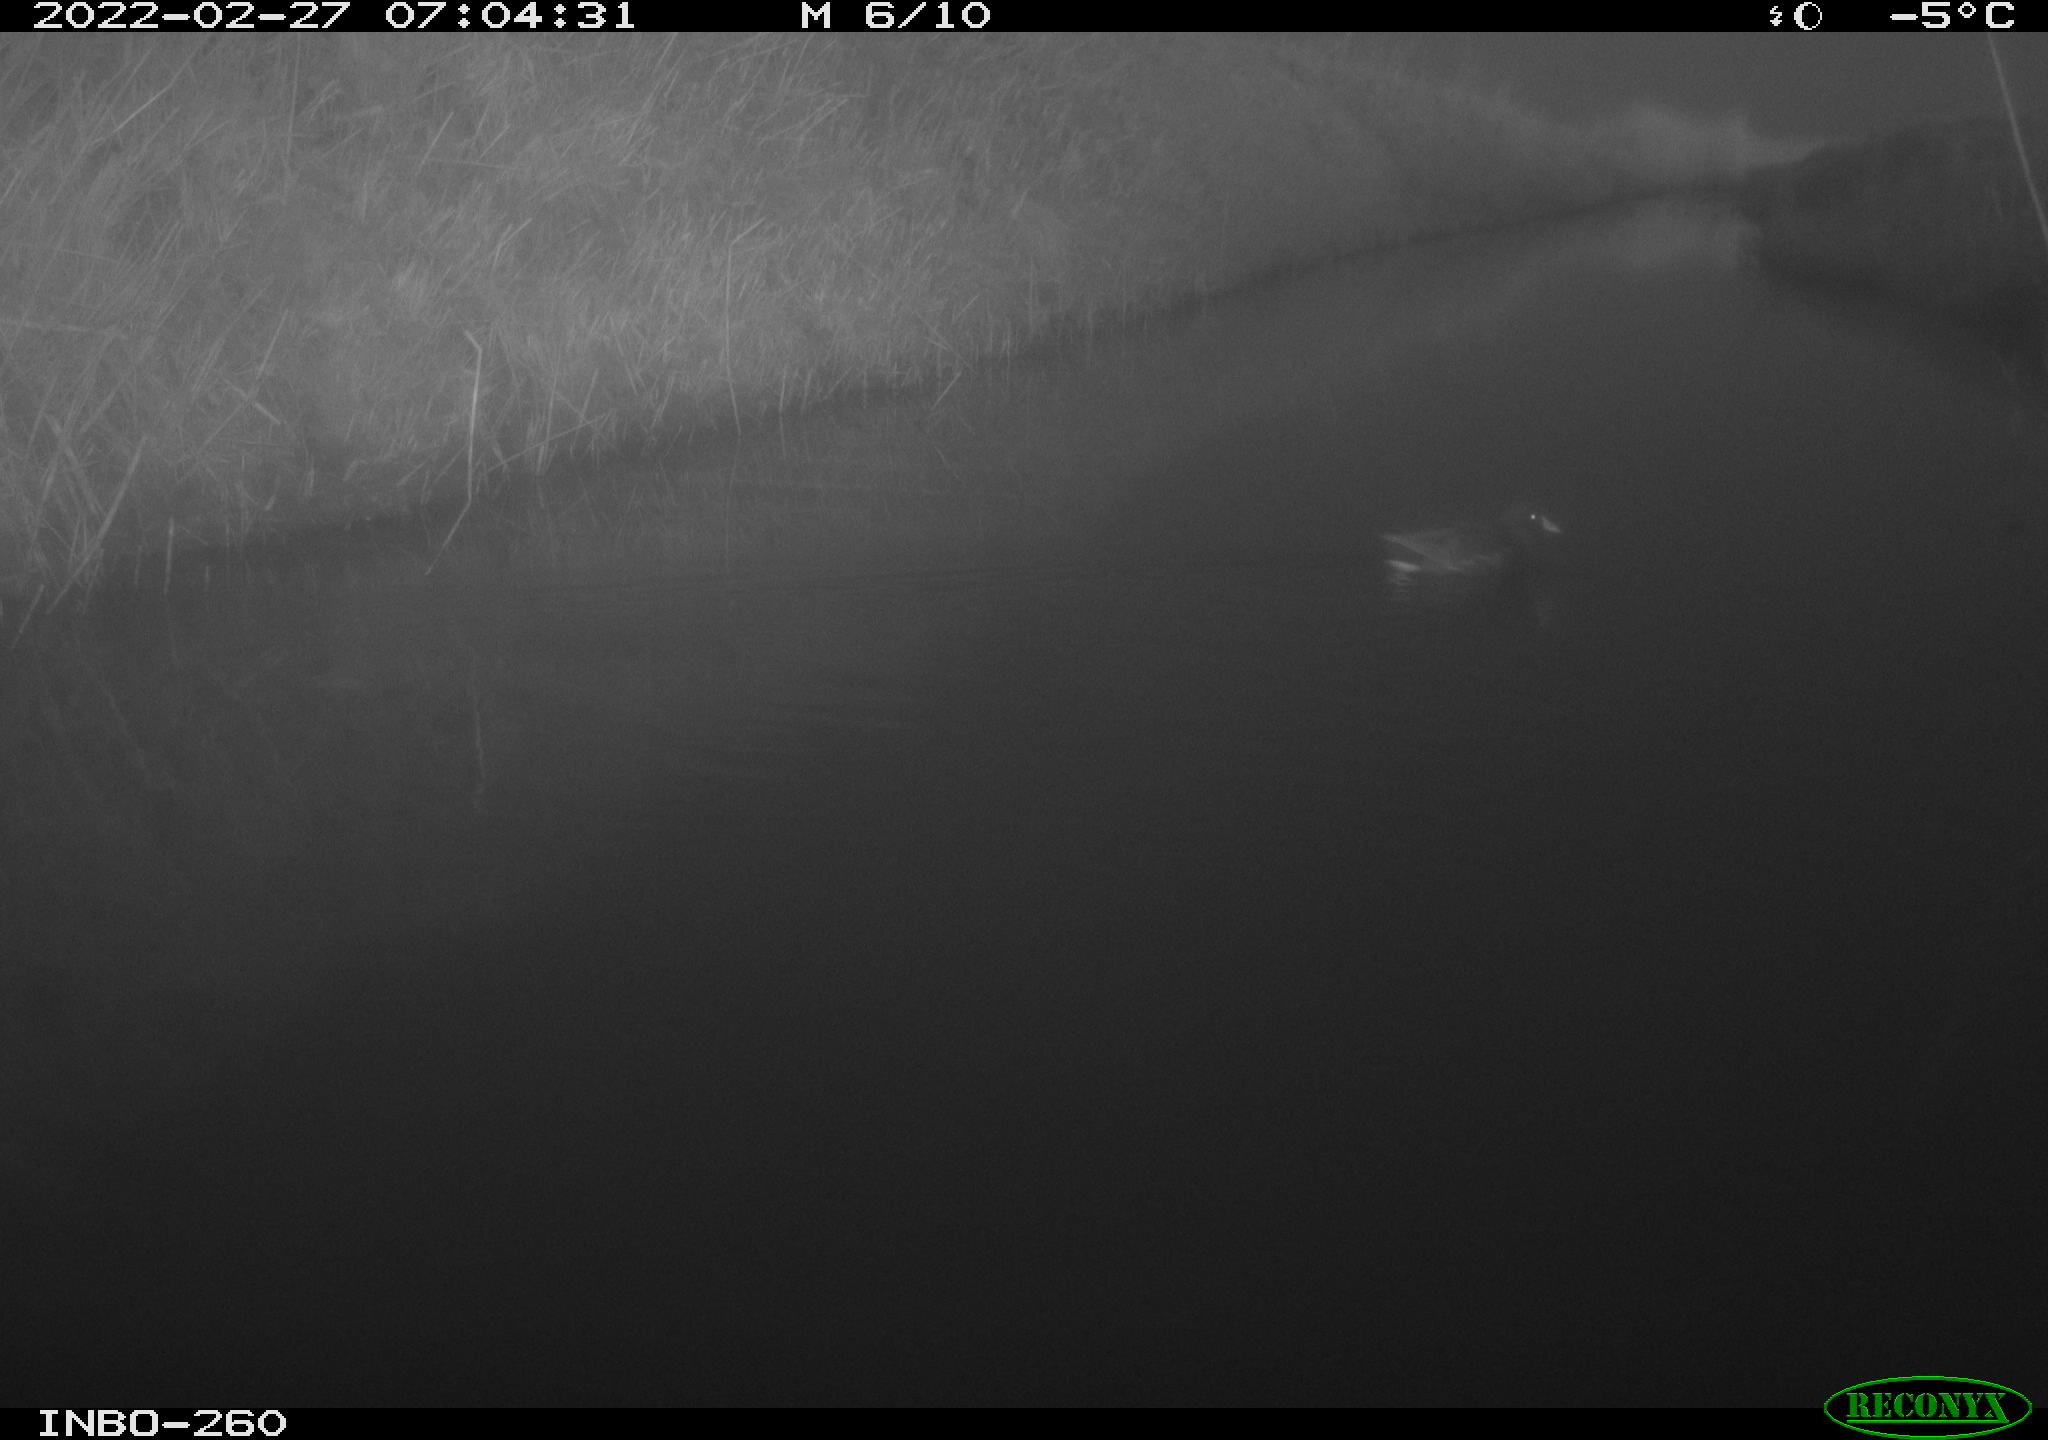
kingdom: Animalia
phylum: Chordata
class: Aves
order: Gruiformes
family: Rallidae
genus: Gallinula
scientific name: Gallinula chloropus
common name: Common moorhen
